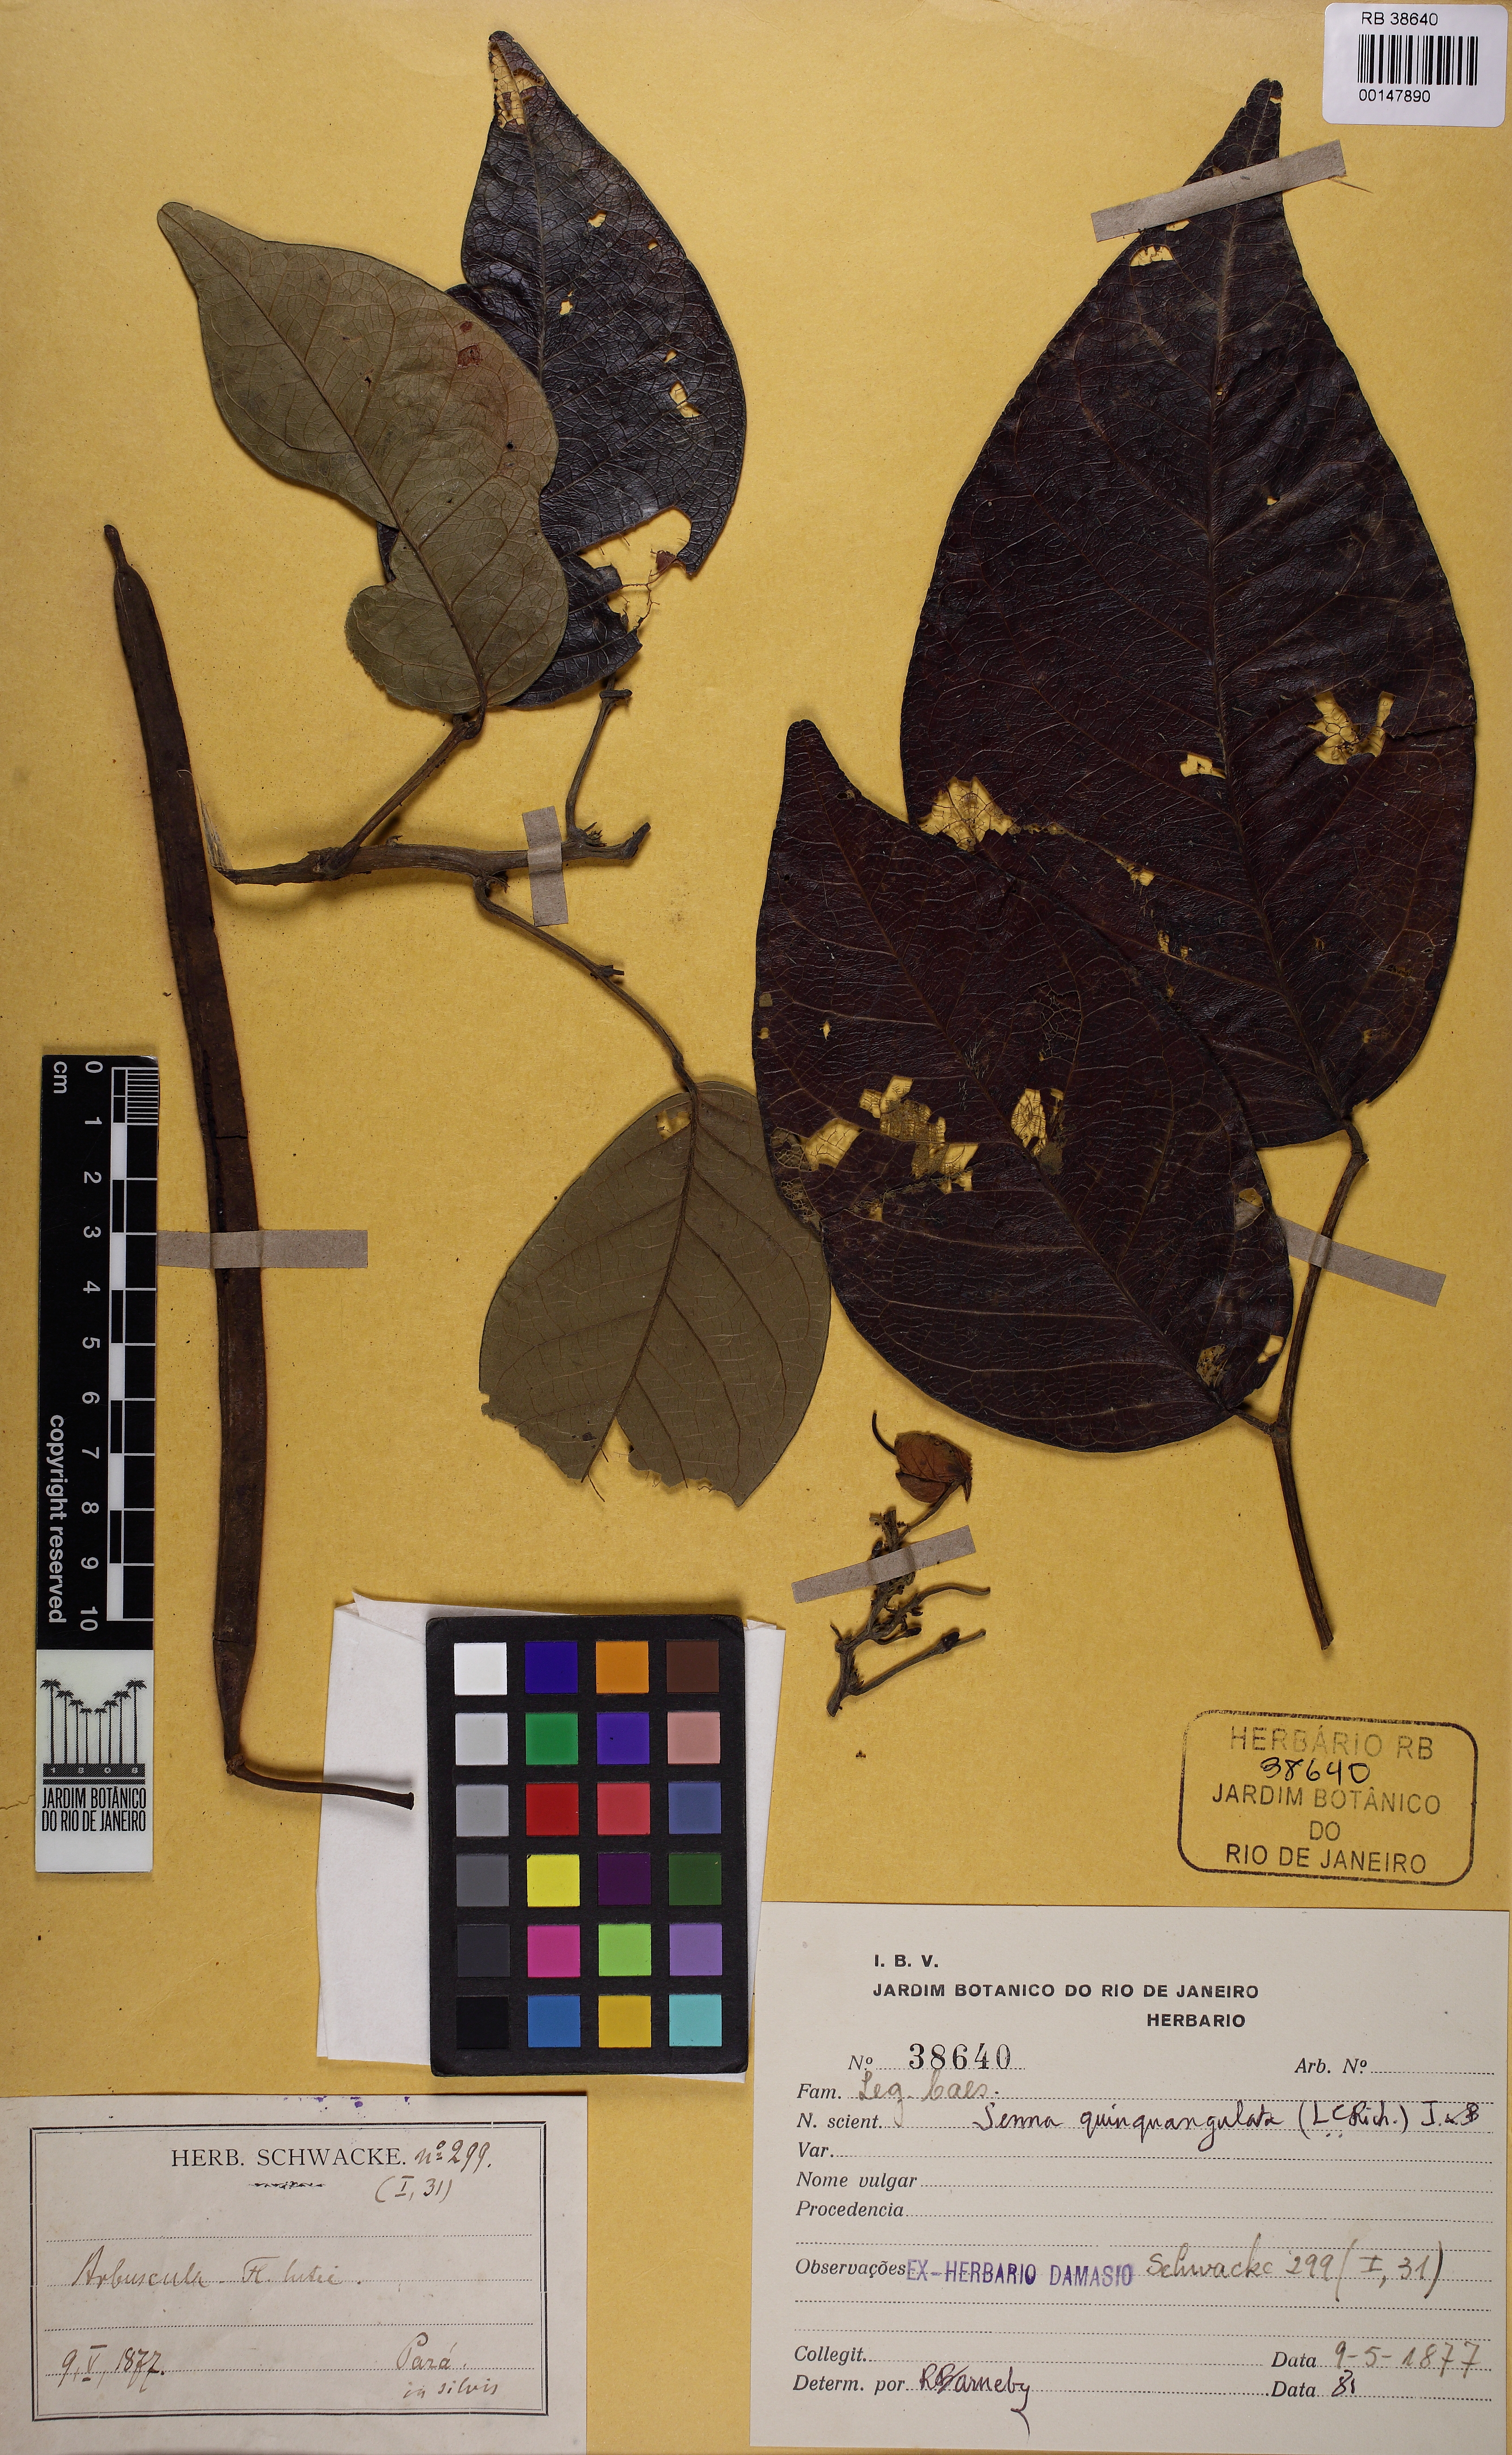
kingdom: Plantae
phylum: Tracheophyta
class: Magnoliopsida
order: Fabales
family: Fabaceae
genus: Senna
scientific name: Senna quinquangulata
